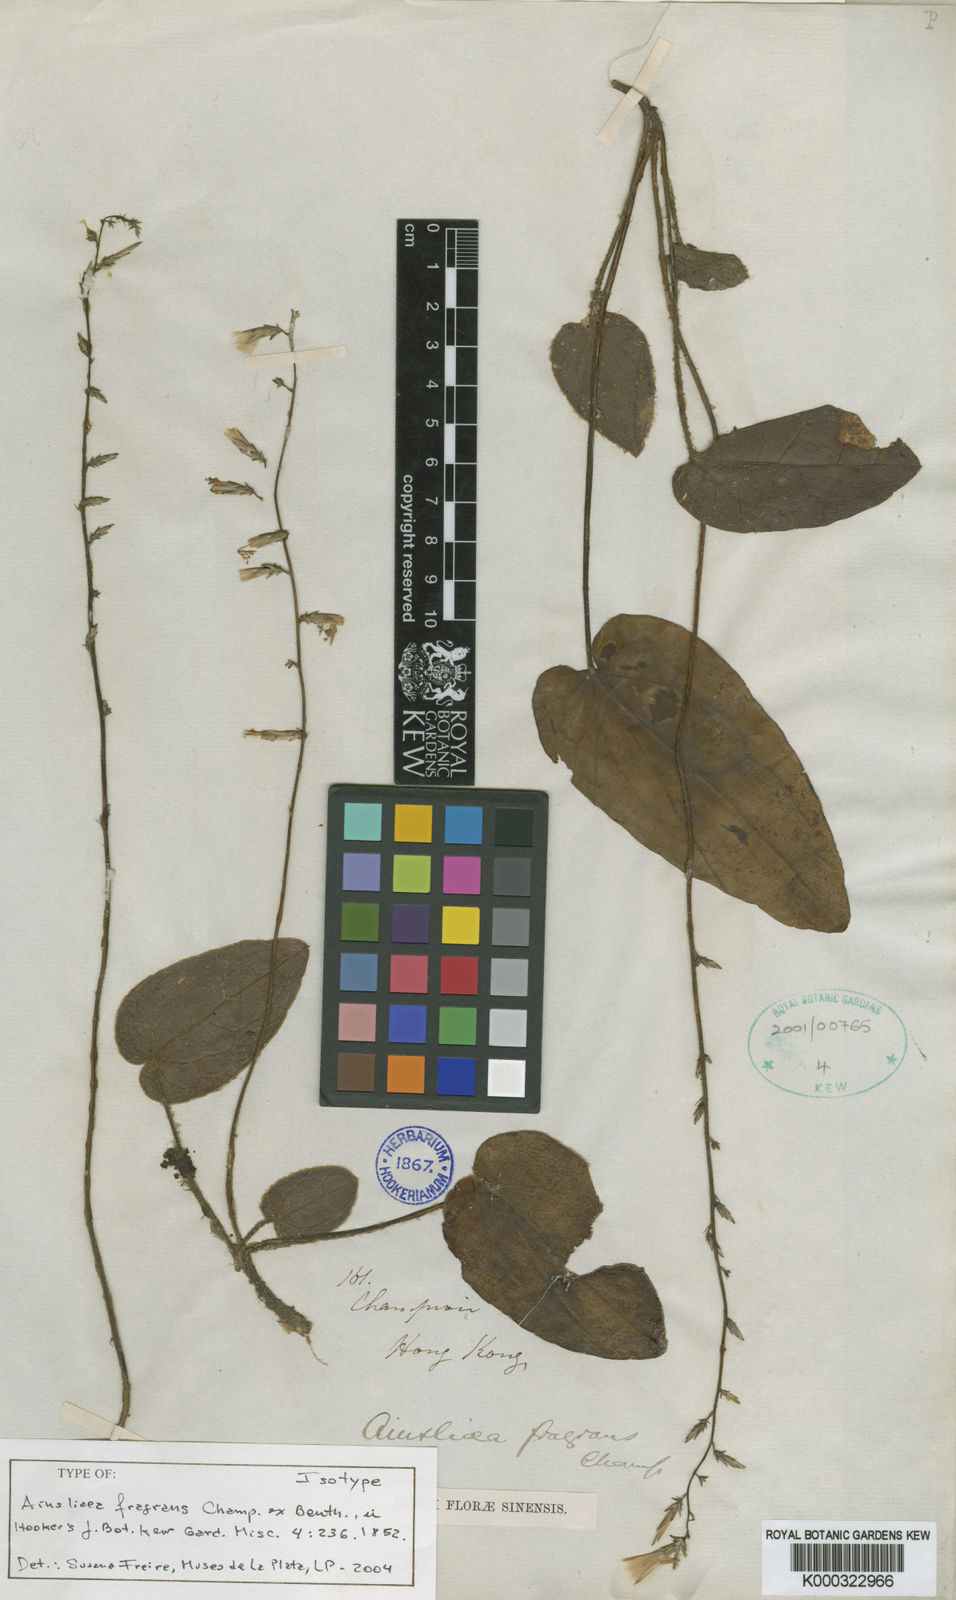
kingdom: Plantae
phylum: Tracheophyta
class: Magnoliopsida
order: Asterales
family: Asteraceae
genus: Ainsliaea
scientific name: Ainsliaea fragrans
